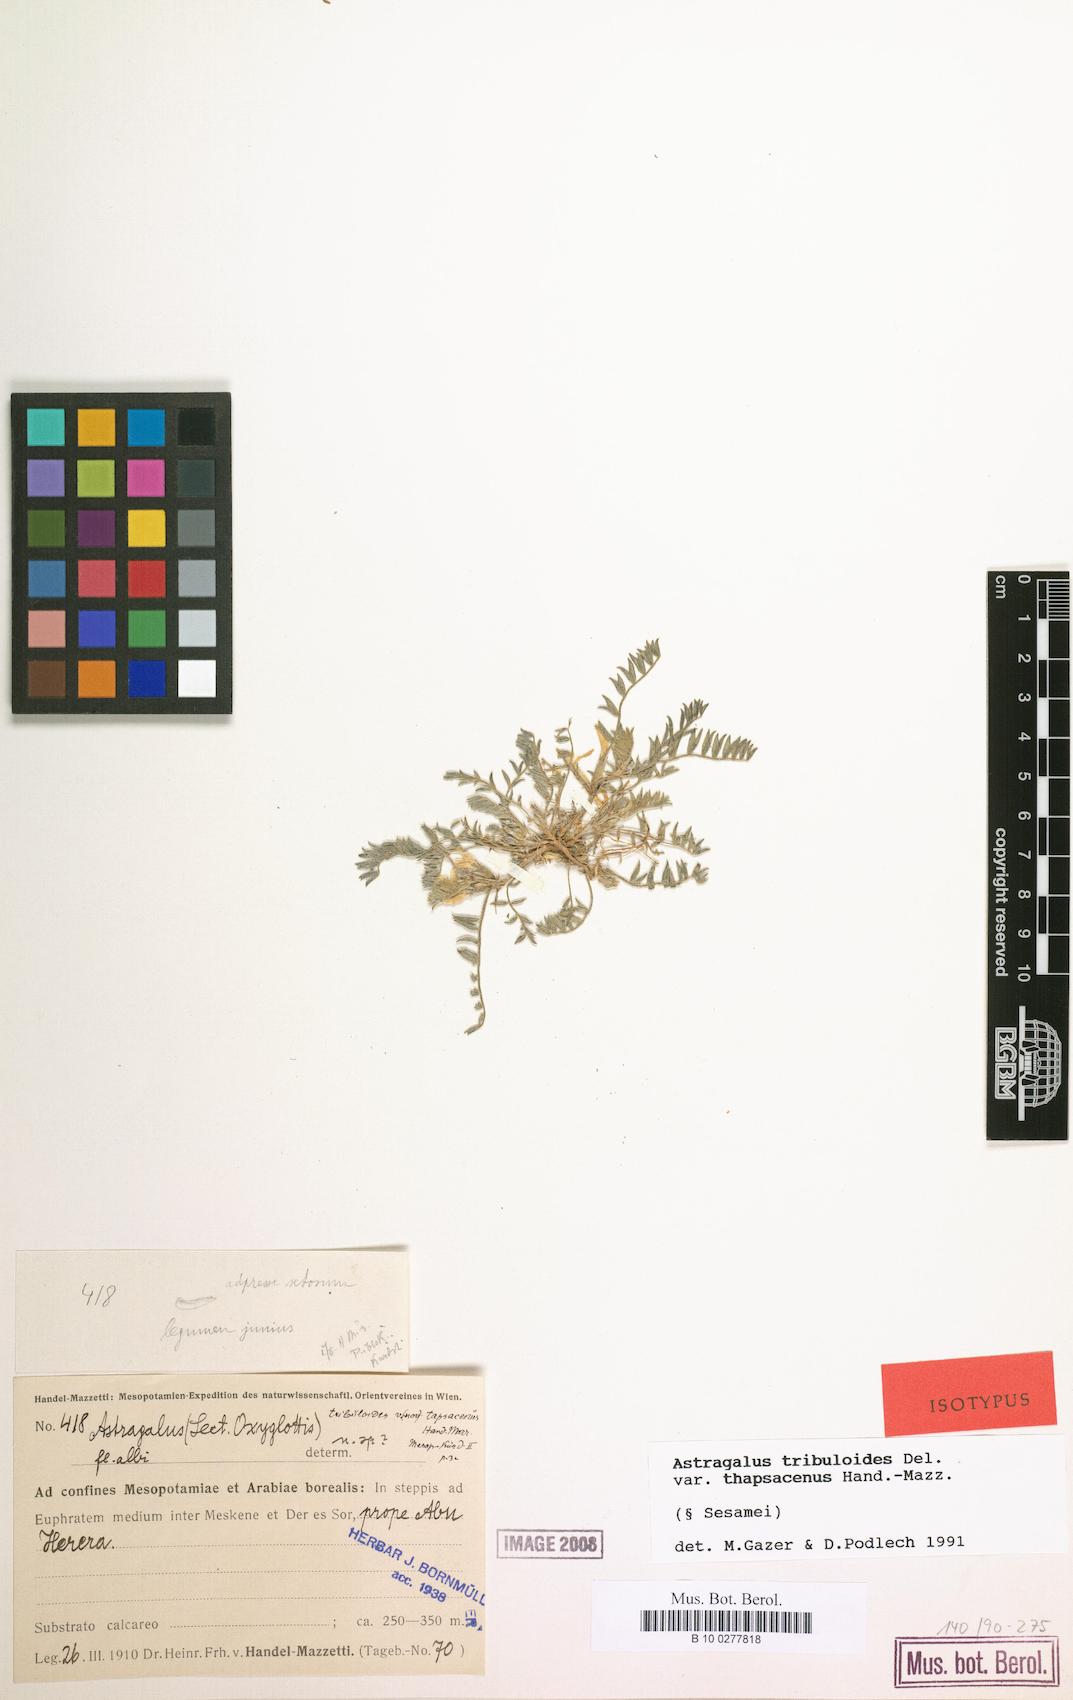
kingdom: Plantae
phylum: Tracheophyta
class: Magnoliopsida
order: Fabales
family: Fabaceae
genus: Astragalus
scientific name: Astragalus tribuloides
